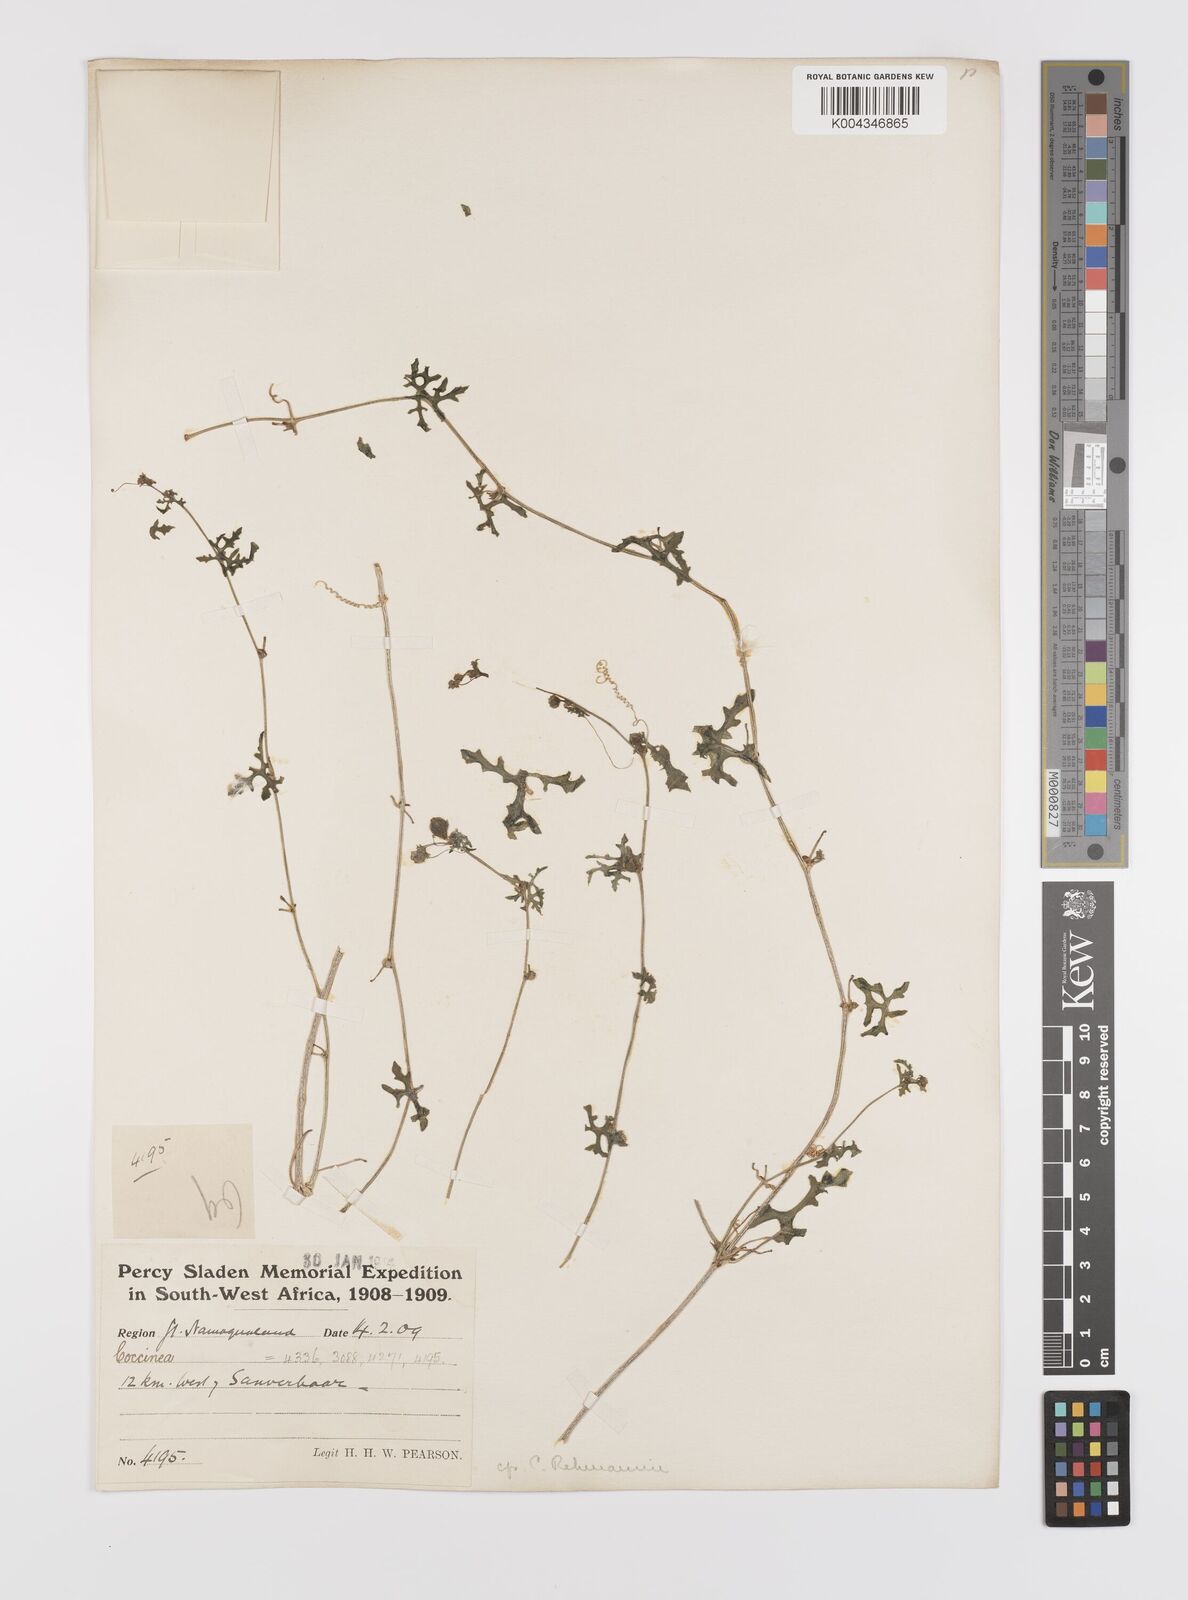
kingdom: Plantae
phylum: Tracheophyta
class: Magnoliopsida
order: Cucurbitales
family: Cucurbitaceae
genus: Coccinia
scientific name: Coccinia rehmannii
